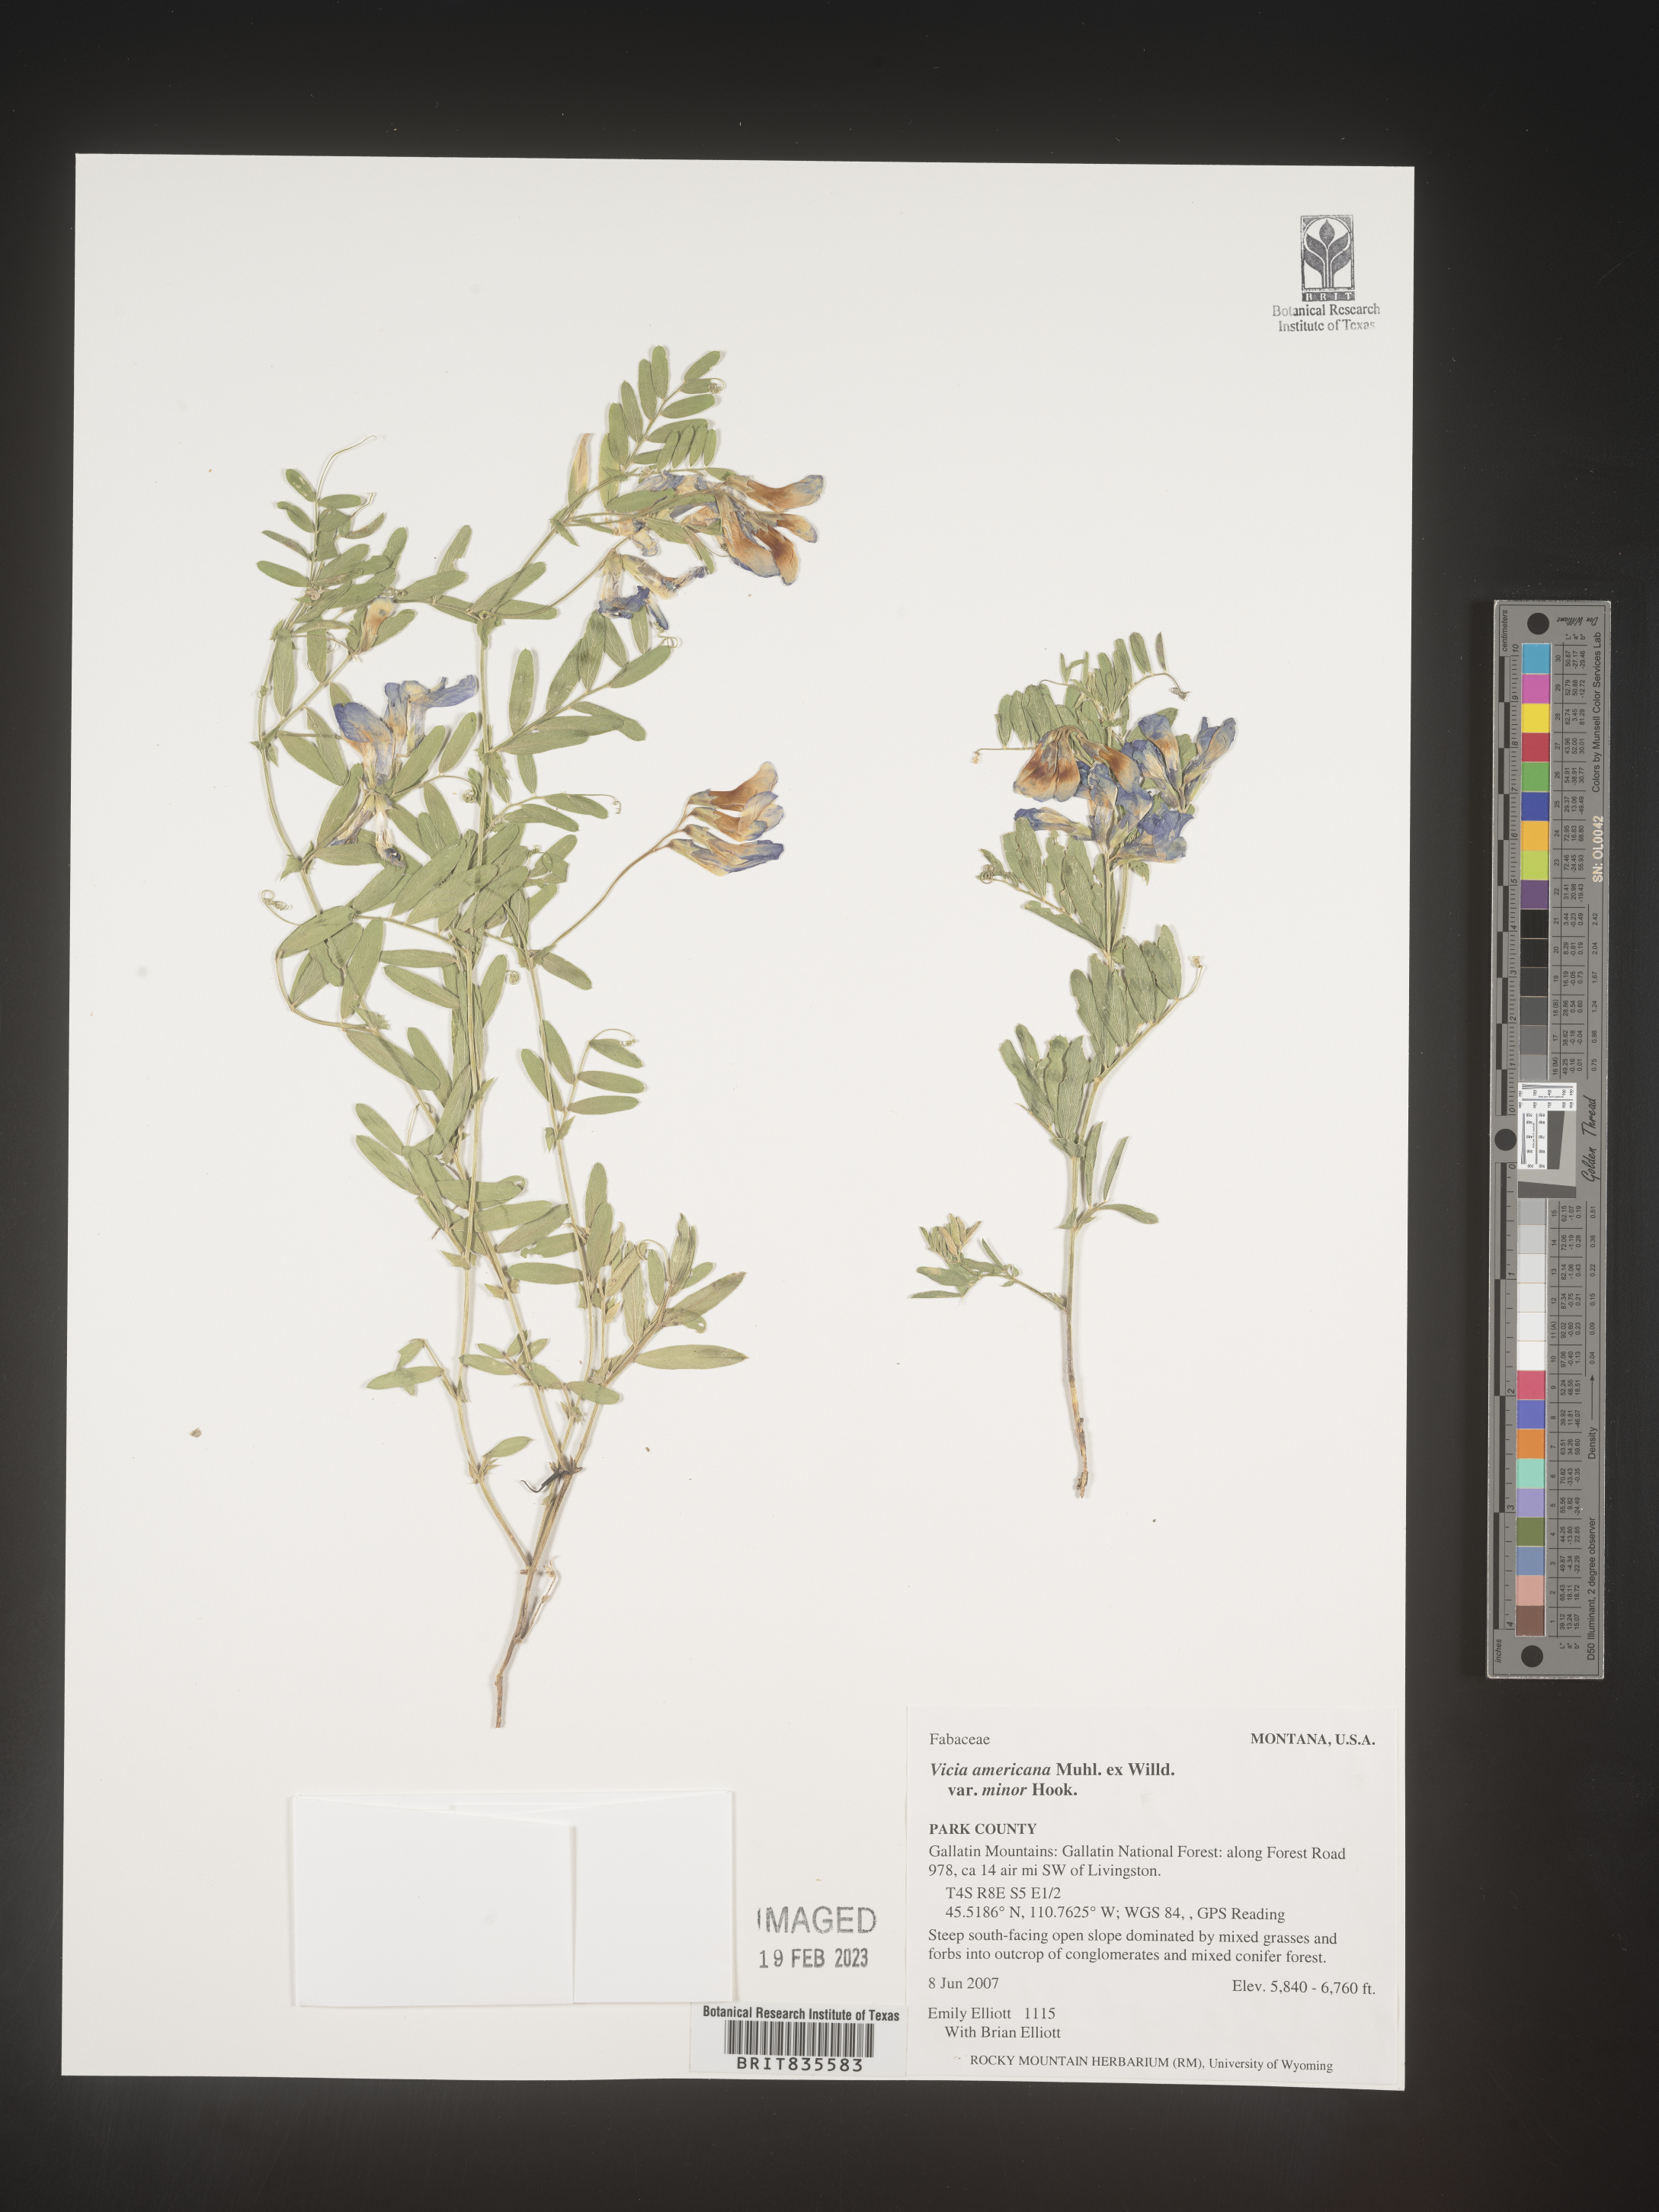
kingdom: Plantae
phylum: Tracheophyta
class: Magnoliopsida
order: Fabales
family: Fabaceae
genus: Vicia
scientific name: Vicia americana
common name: American vetch
